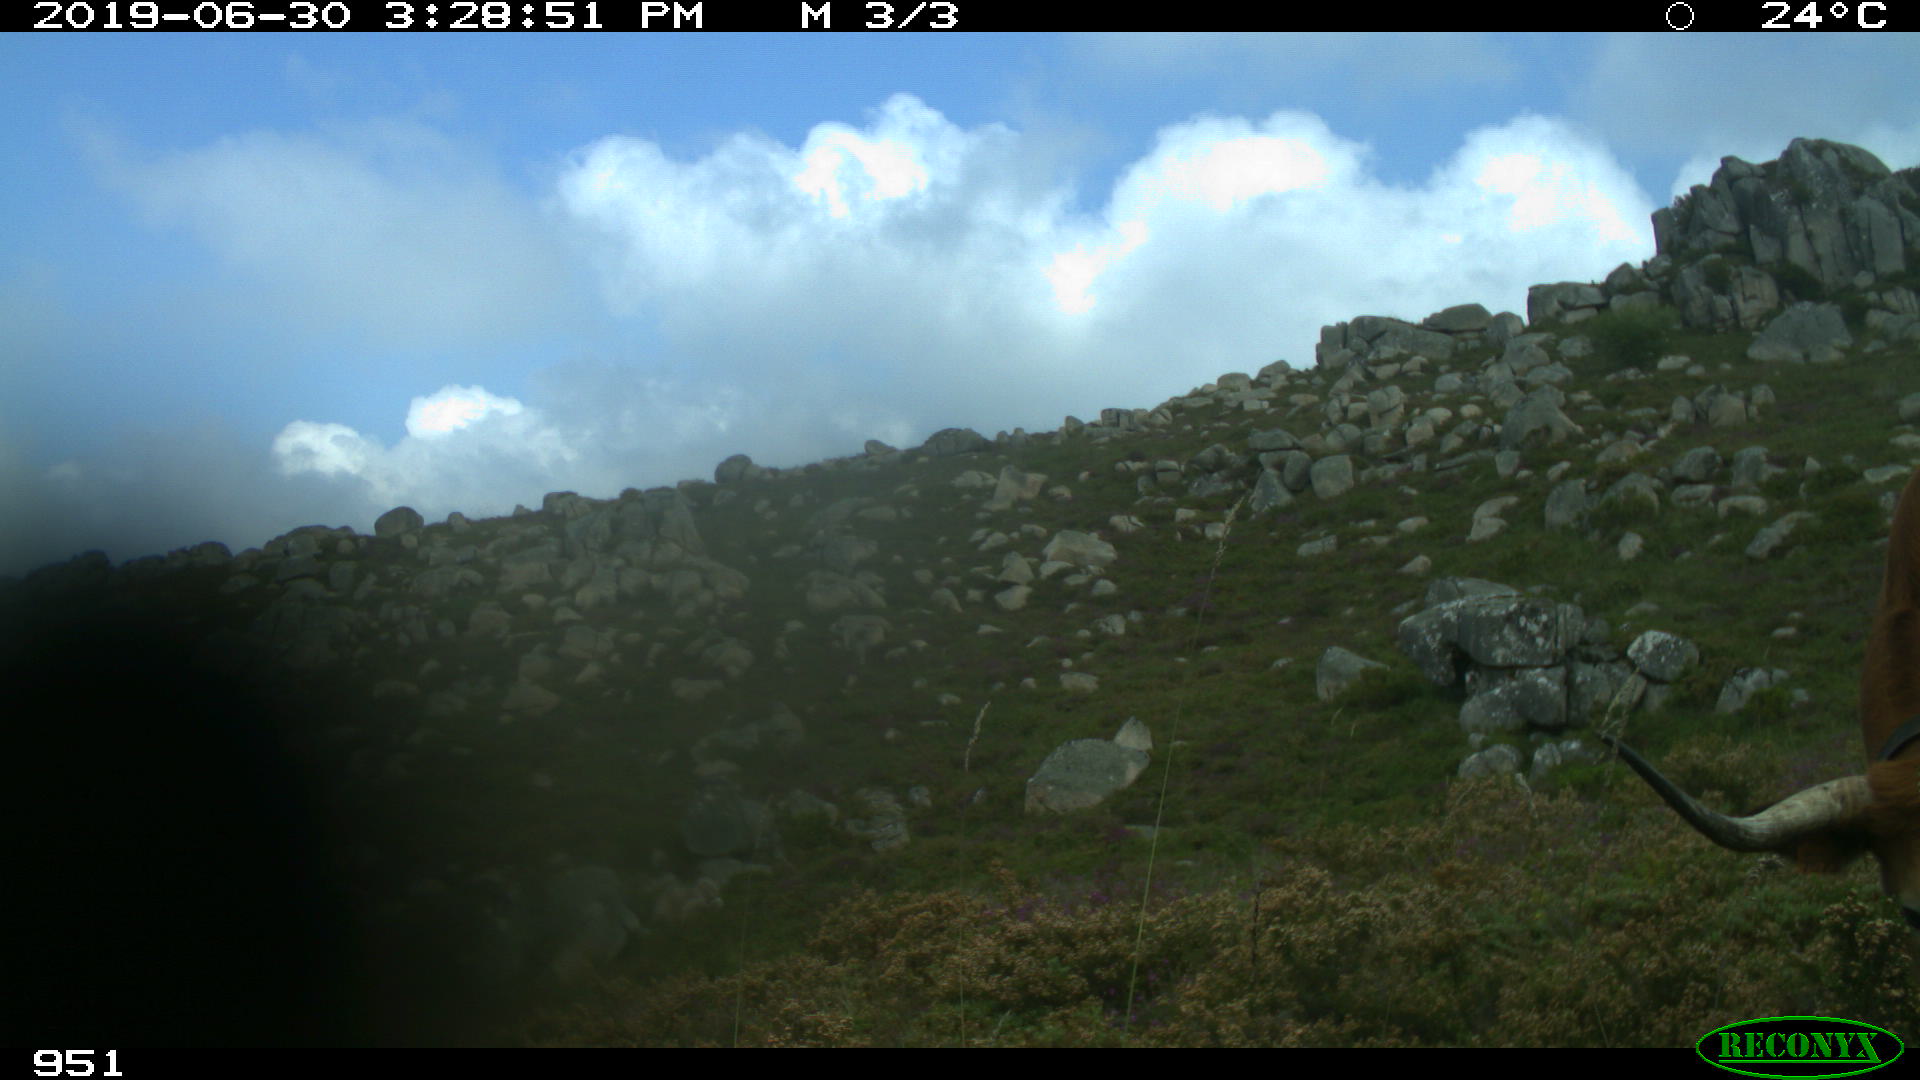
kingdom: Animalia
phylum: Chordata
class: Mammalia
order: Artiodactyla
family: Bovidae
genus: Bos
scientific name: Bos taurus
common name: Domesticated cattle
